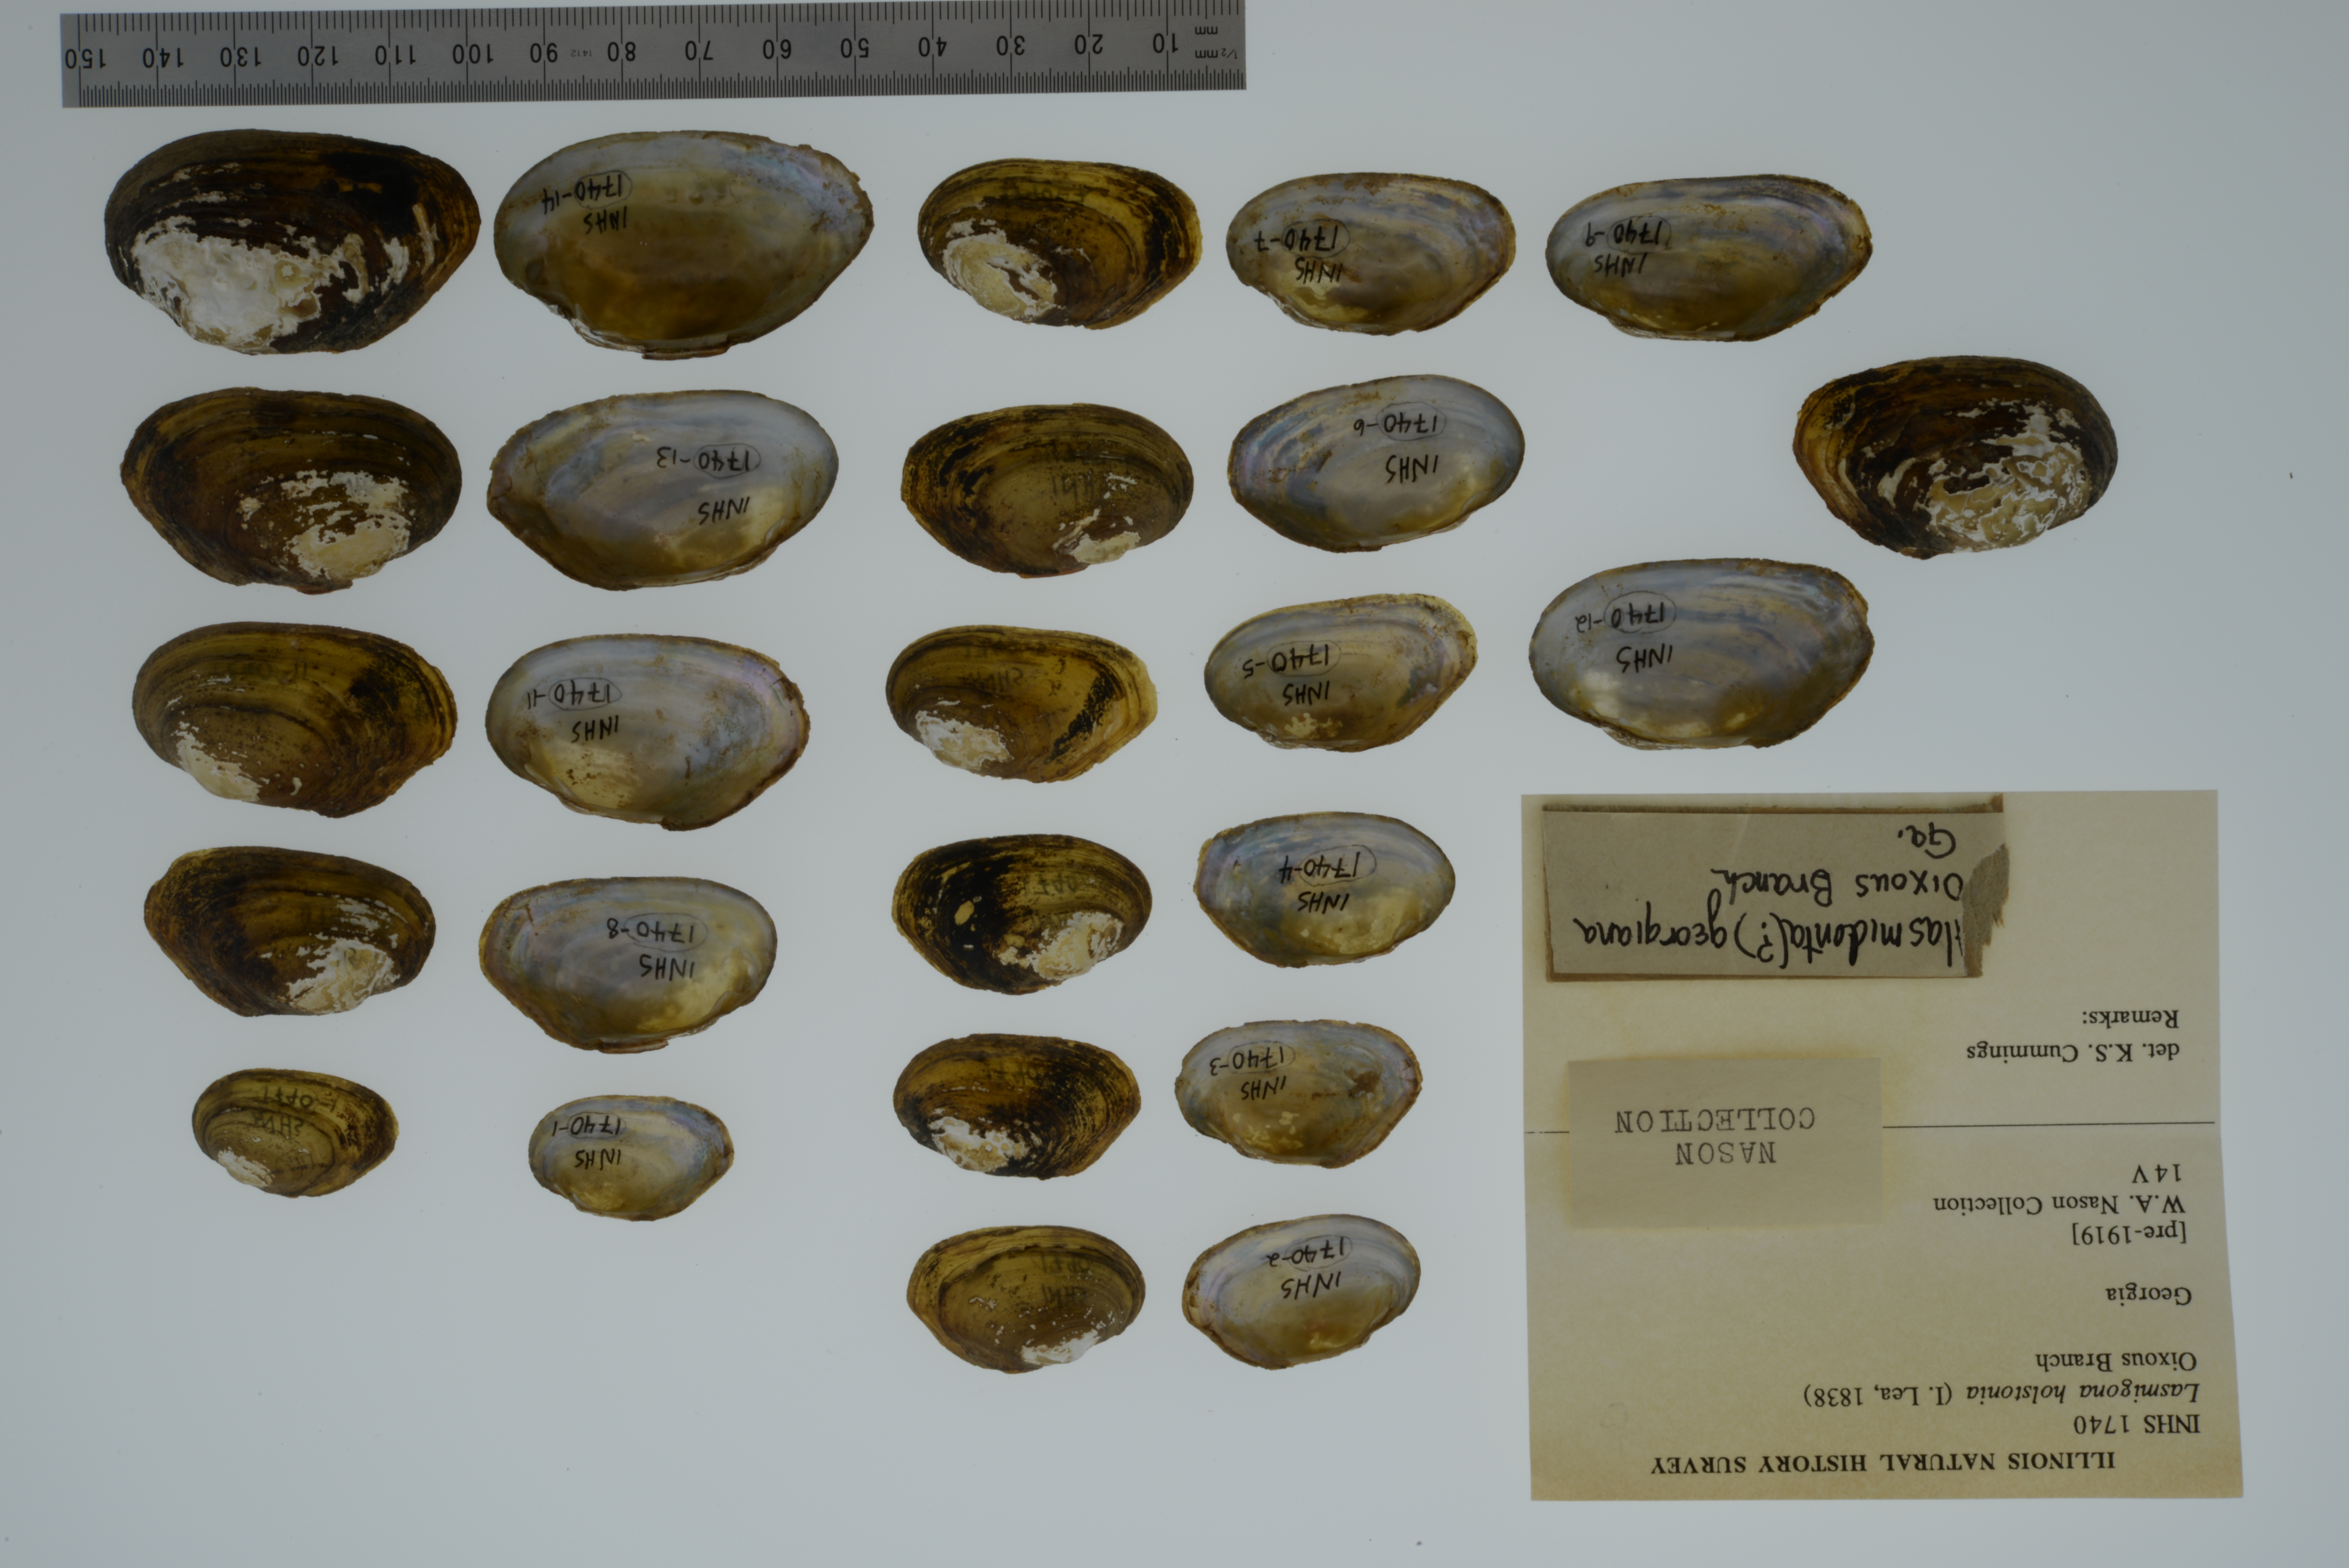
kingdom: Animalia
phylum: Mollusca
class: Bivalvia
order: Unionida
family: Unionidae
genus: Lasmigona
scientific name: Lasmigona holstonia
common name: Tennessee heelsplitter
